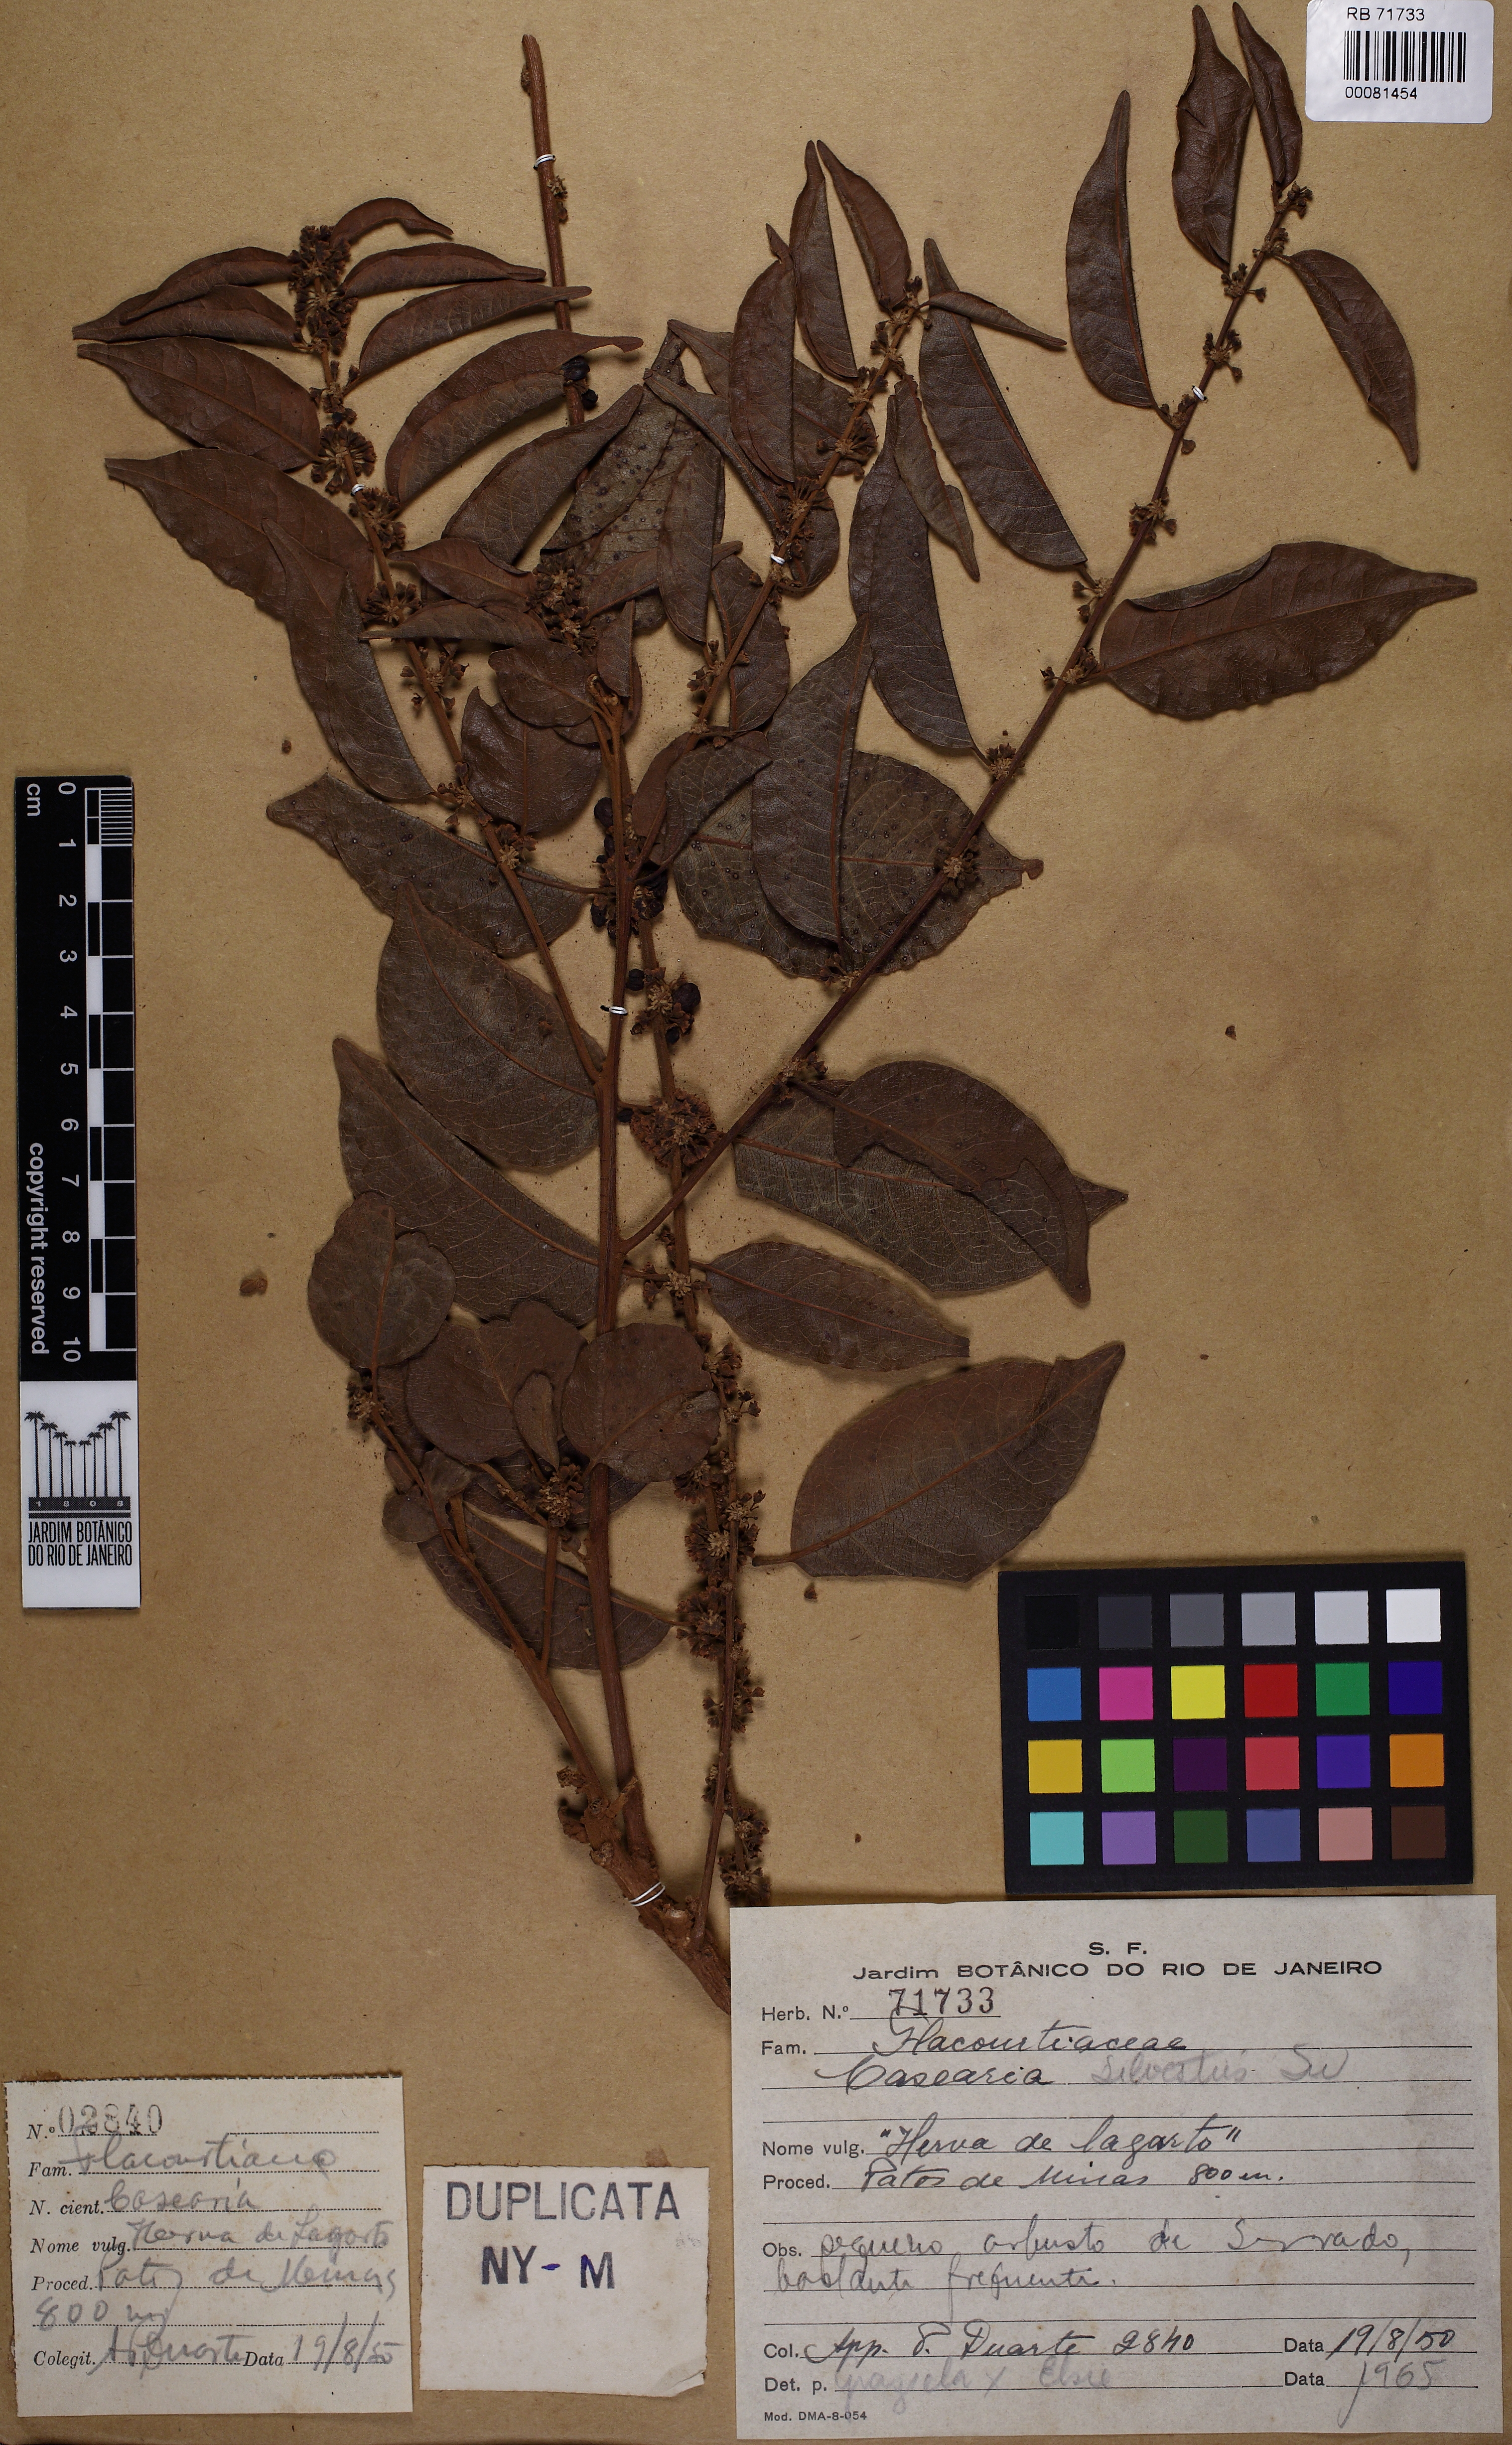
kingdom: Plantae
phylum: Tracheophyta
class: Magnoliopsida
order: Malpighiales
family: Salicaceae
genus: Casearia
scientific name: Casearia sylvestris
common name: Wild sage
